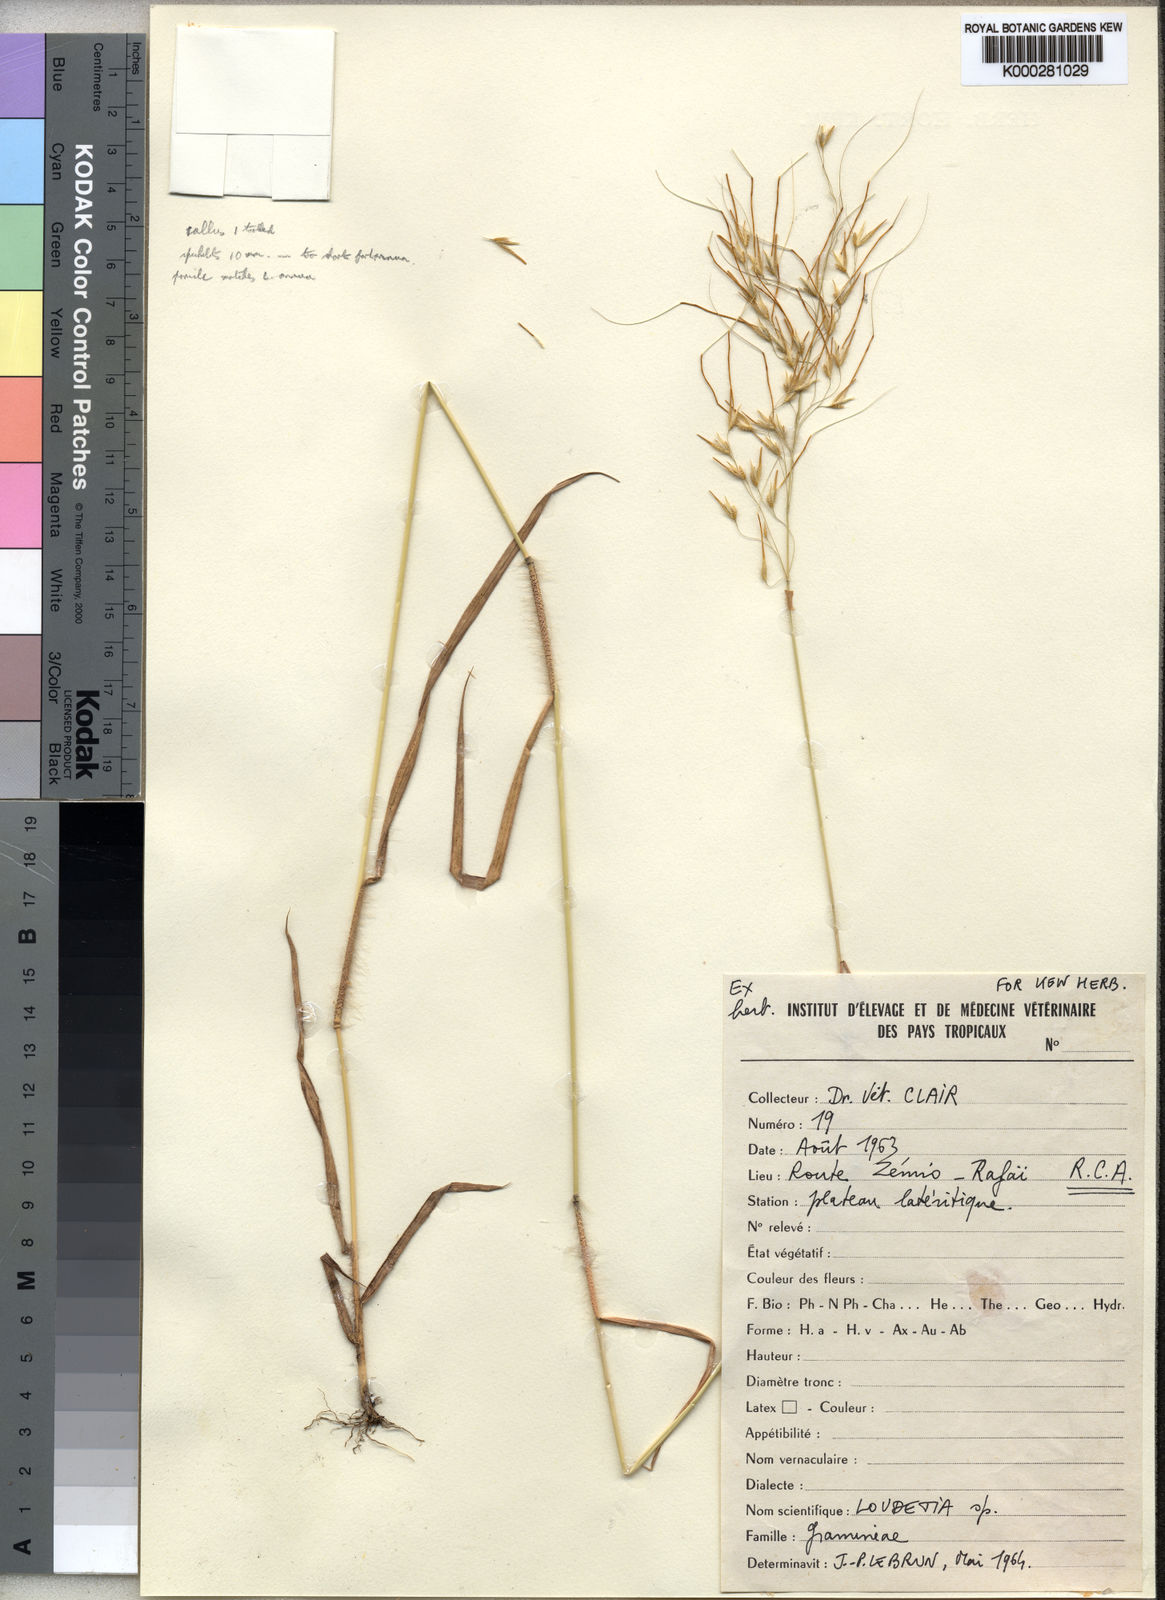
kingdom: Plantae
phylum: Tracheophyta
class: Liliopsida
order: Poales
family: Poaceae
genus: Loudetia
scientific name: Loudetia annua
